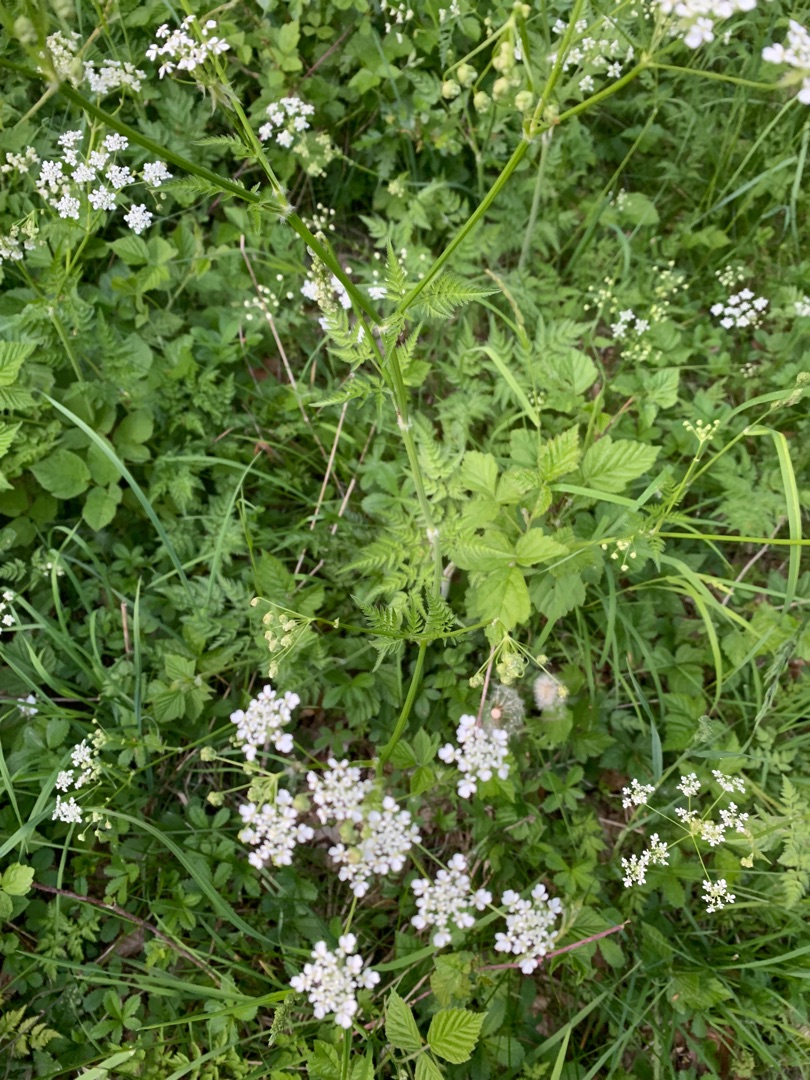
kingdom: Plantae
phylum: Tracheophyta
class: Magnoliopsida
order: Apiales
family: Apiaceae
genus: Anthriscus
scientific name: Anthriscus sylvestris
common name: Vild kørvel
